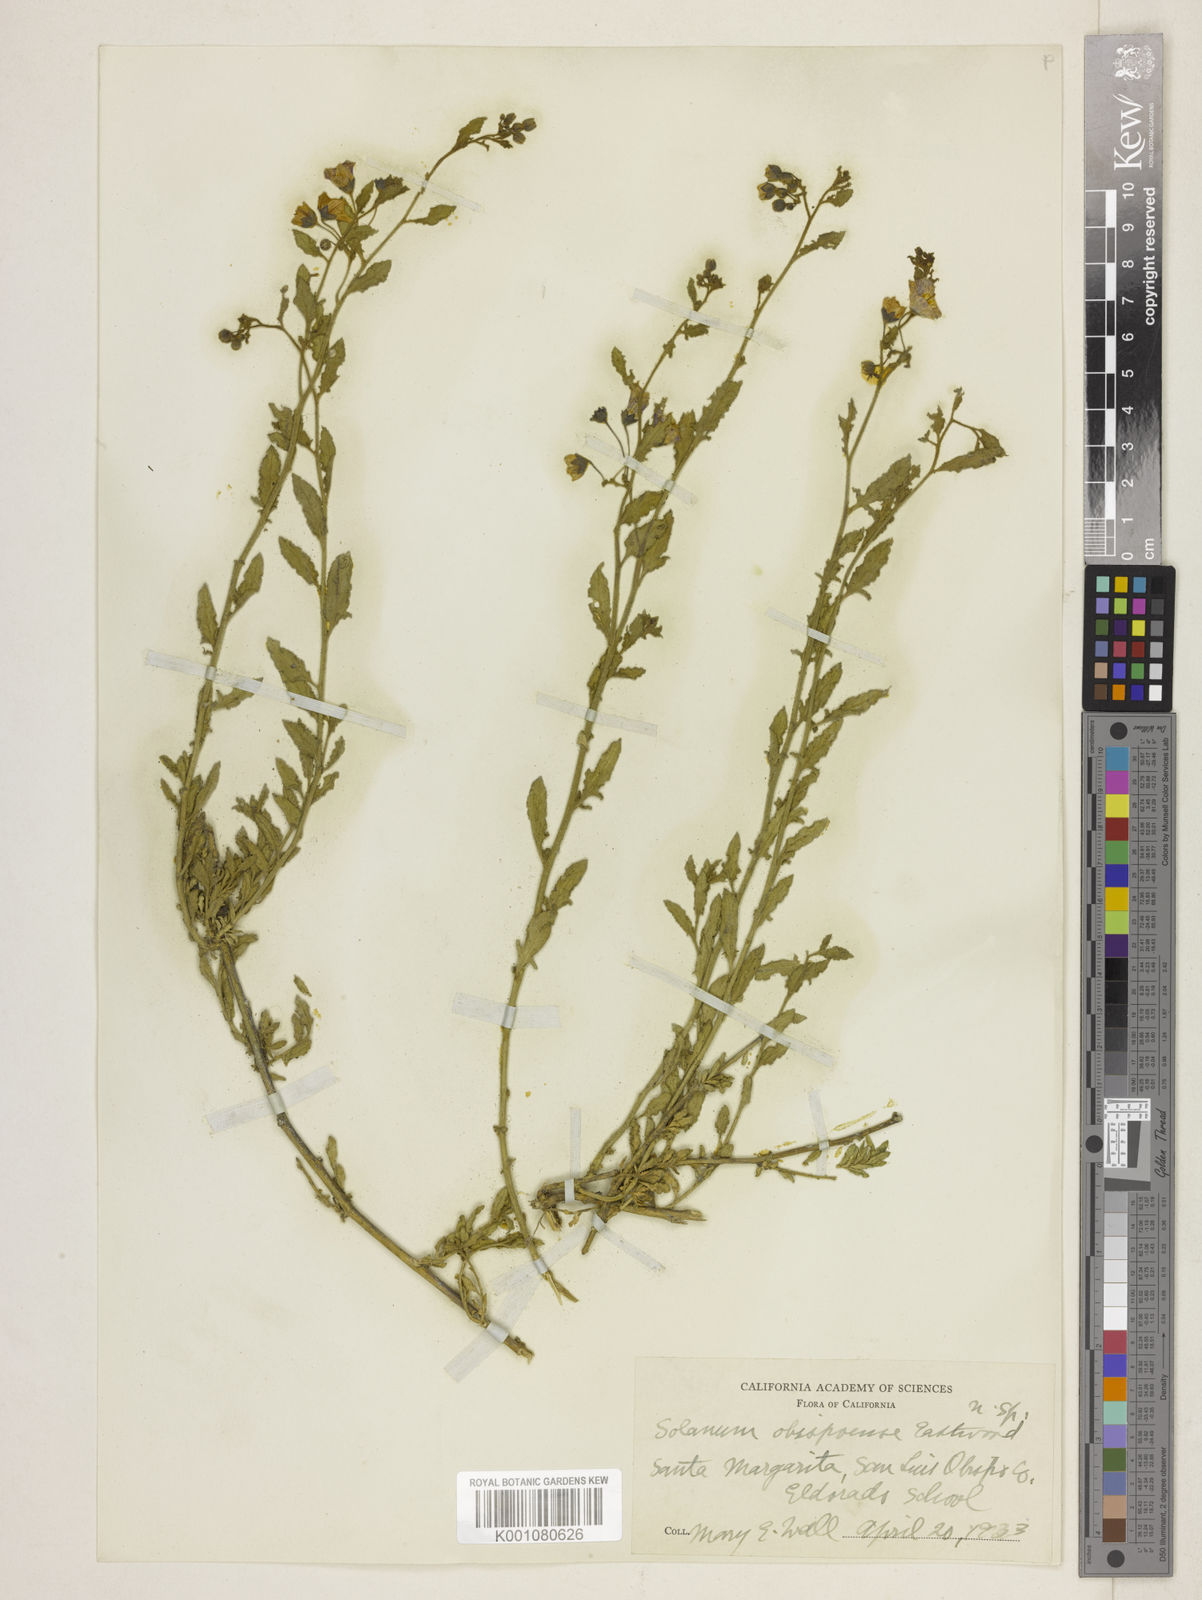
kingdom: Plantae
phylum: Tracheophyta
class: Magnoliopsida
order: Solanales
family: Solanaceae
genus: Solanum
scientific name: Solanum umbelliferum
